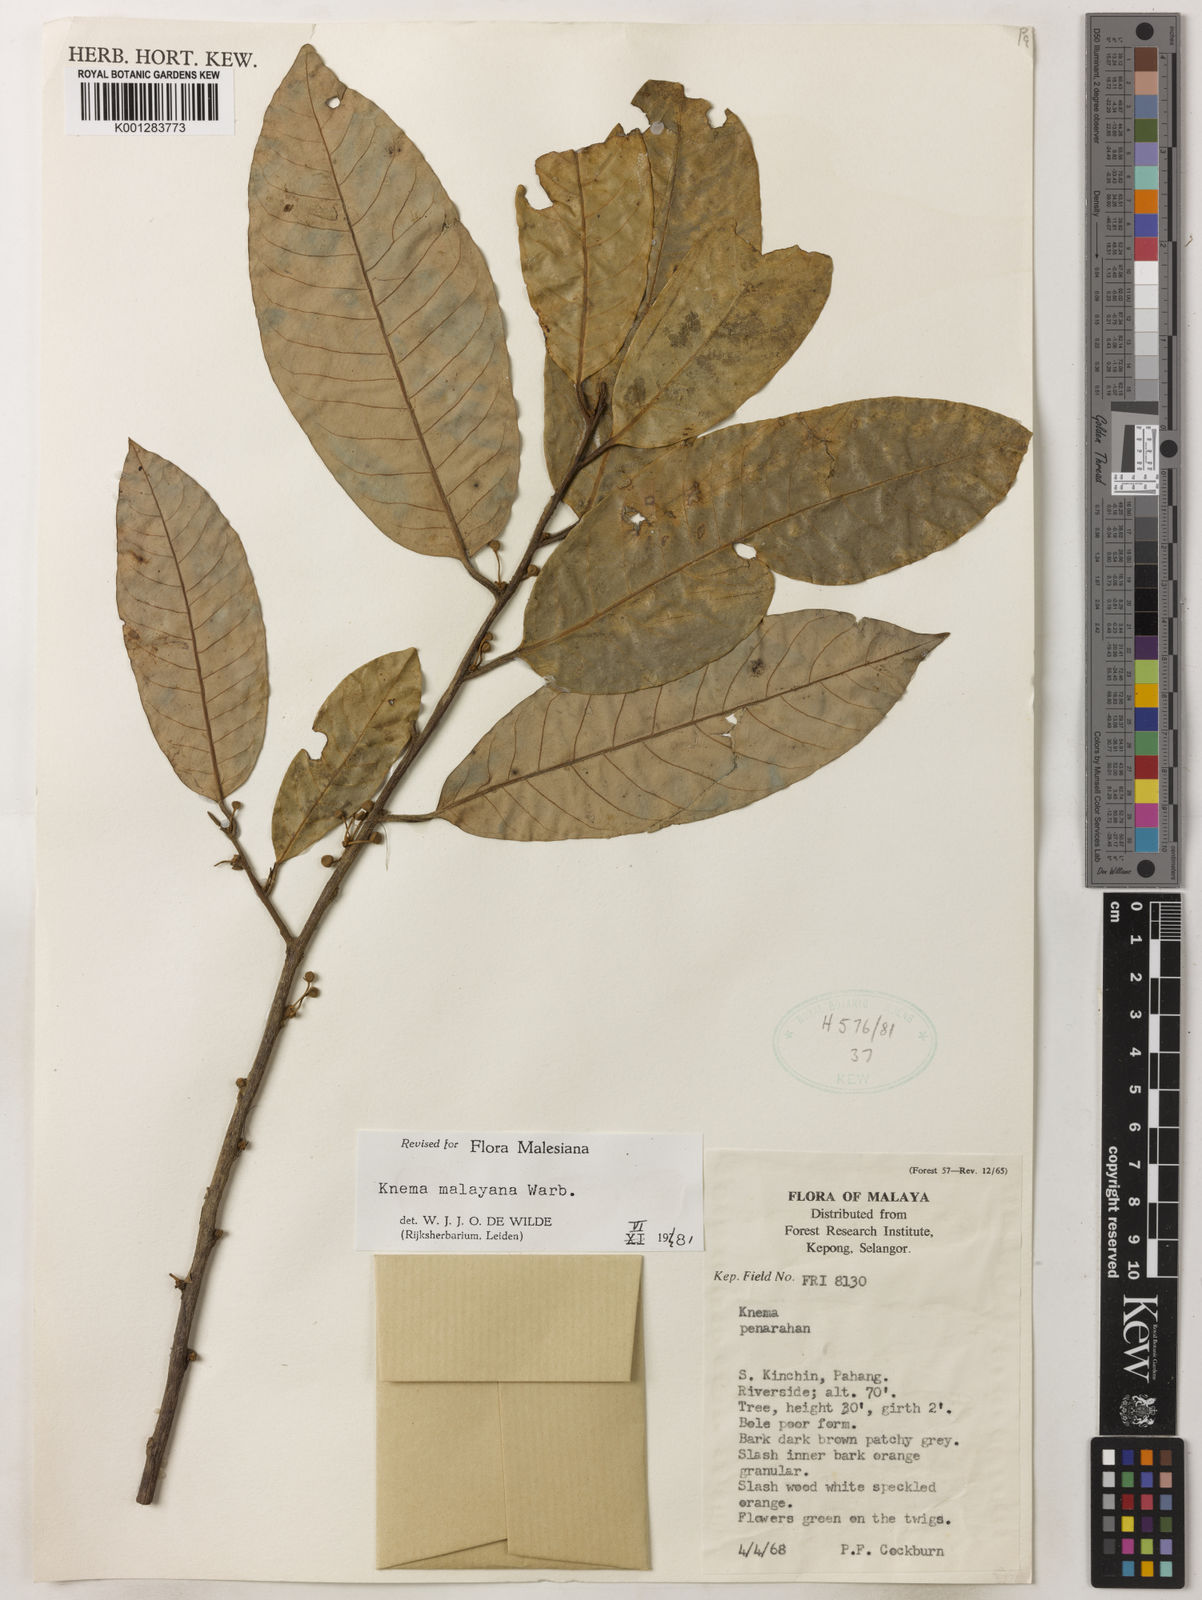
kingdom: Plantae
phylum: Tracheophyta
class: Magnoliopsida
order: Magnoliales
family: Myristicaceae
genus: Knema
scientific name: Knema malayana
